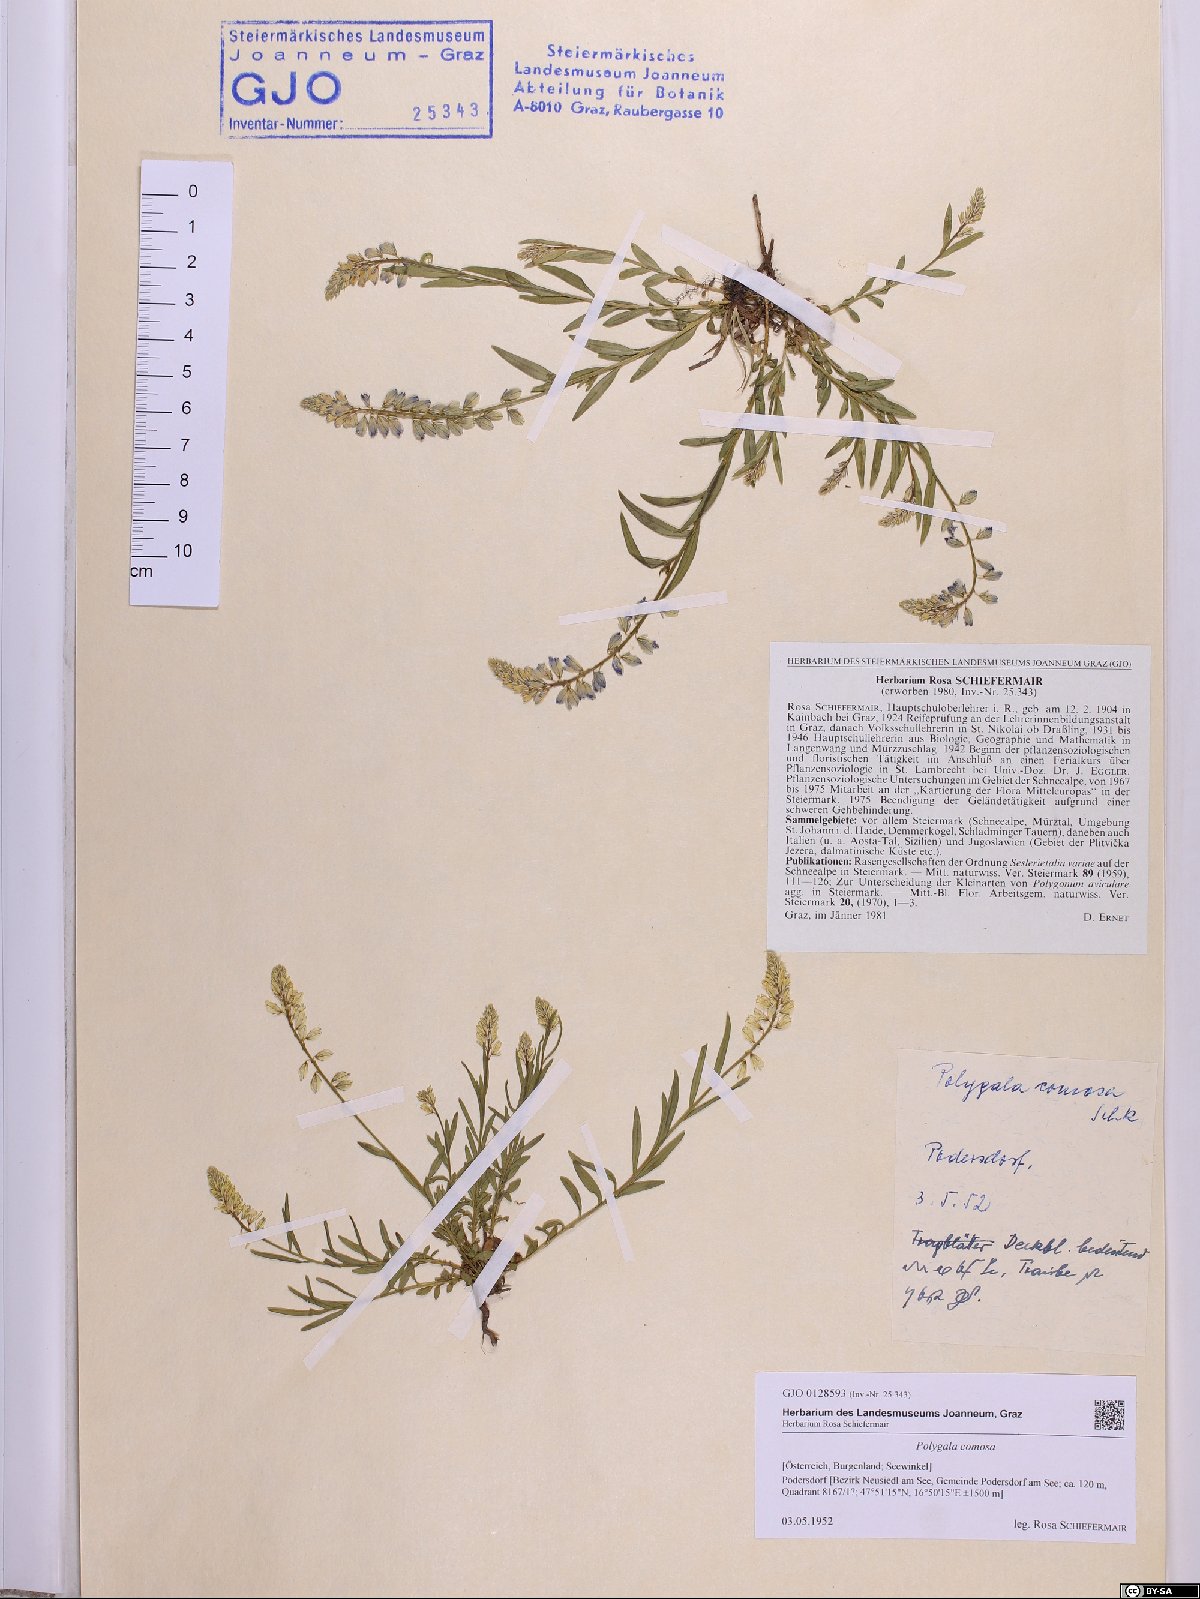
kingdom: Plantae
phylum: Tracheophyta
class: Magnoliopsida
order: Fabales
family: Polygalaceae
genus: Polygala
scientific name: Polygala comosa
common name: Tufted milkwort
